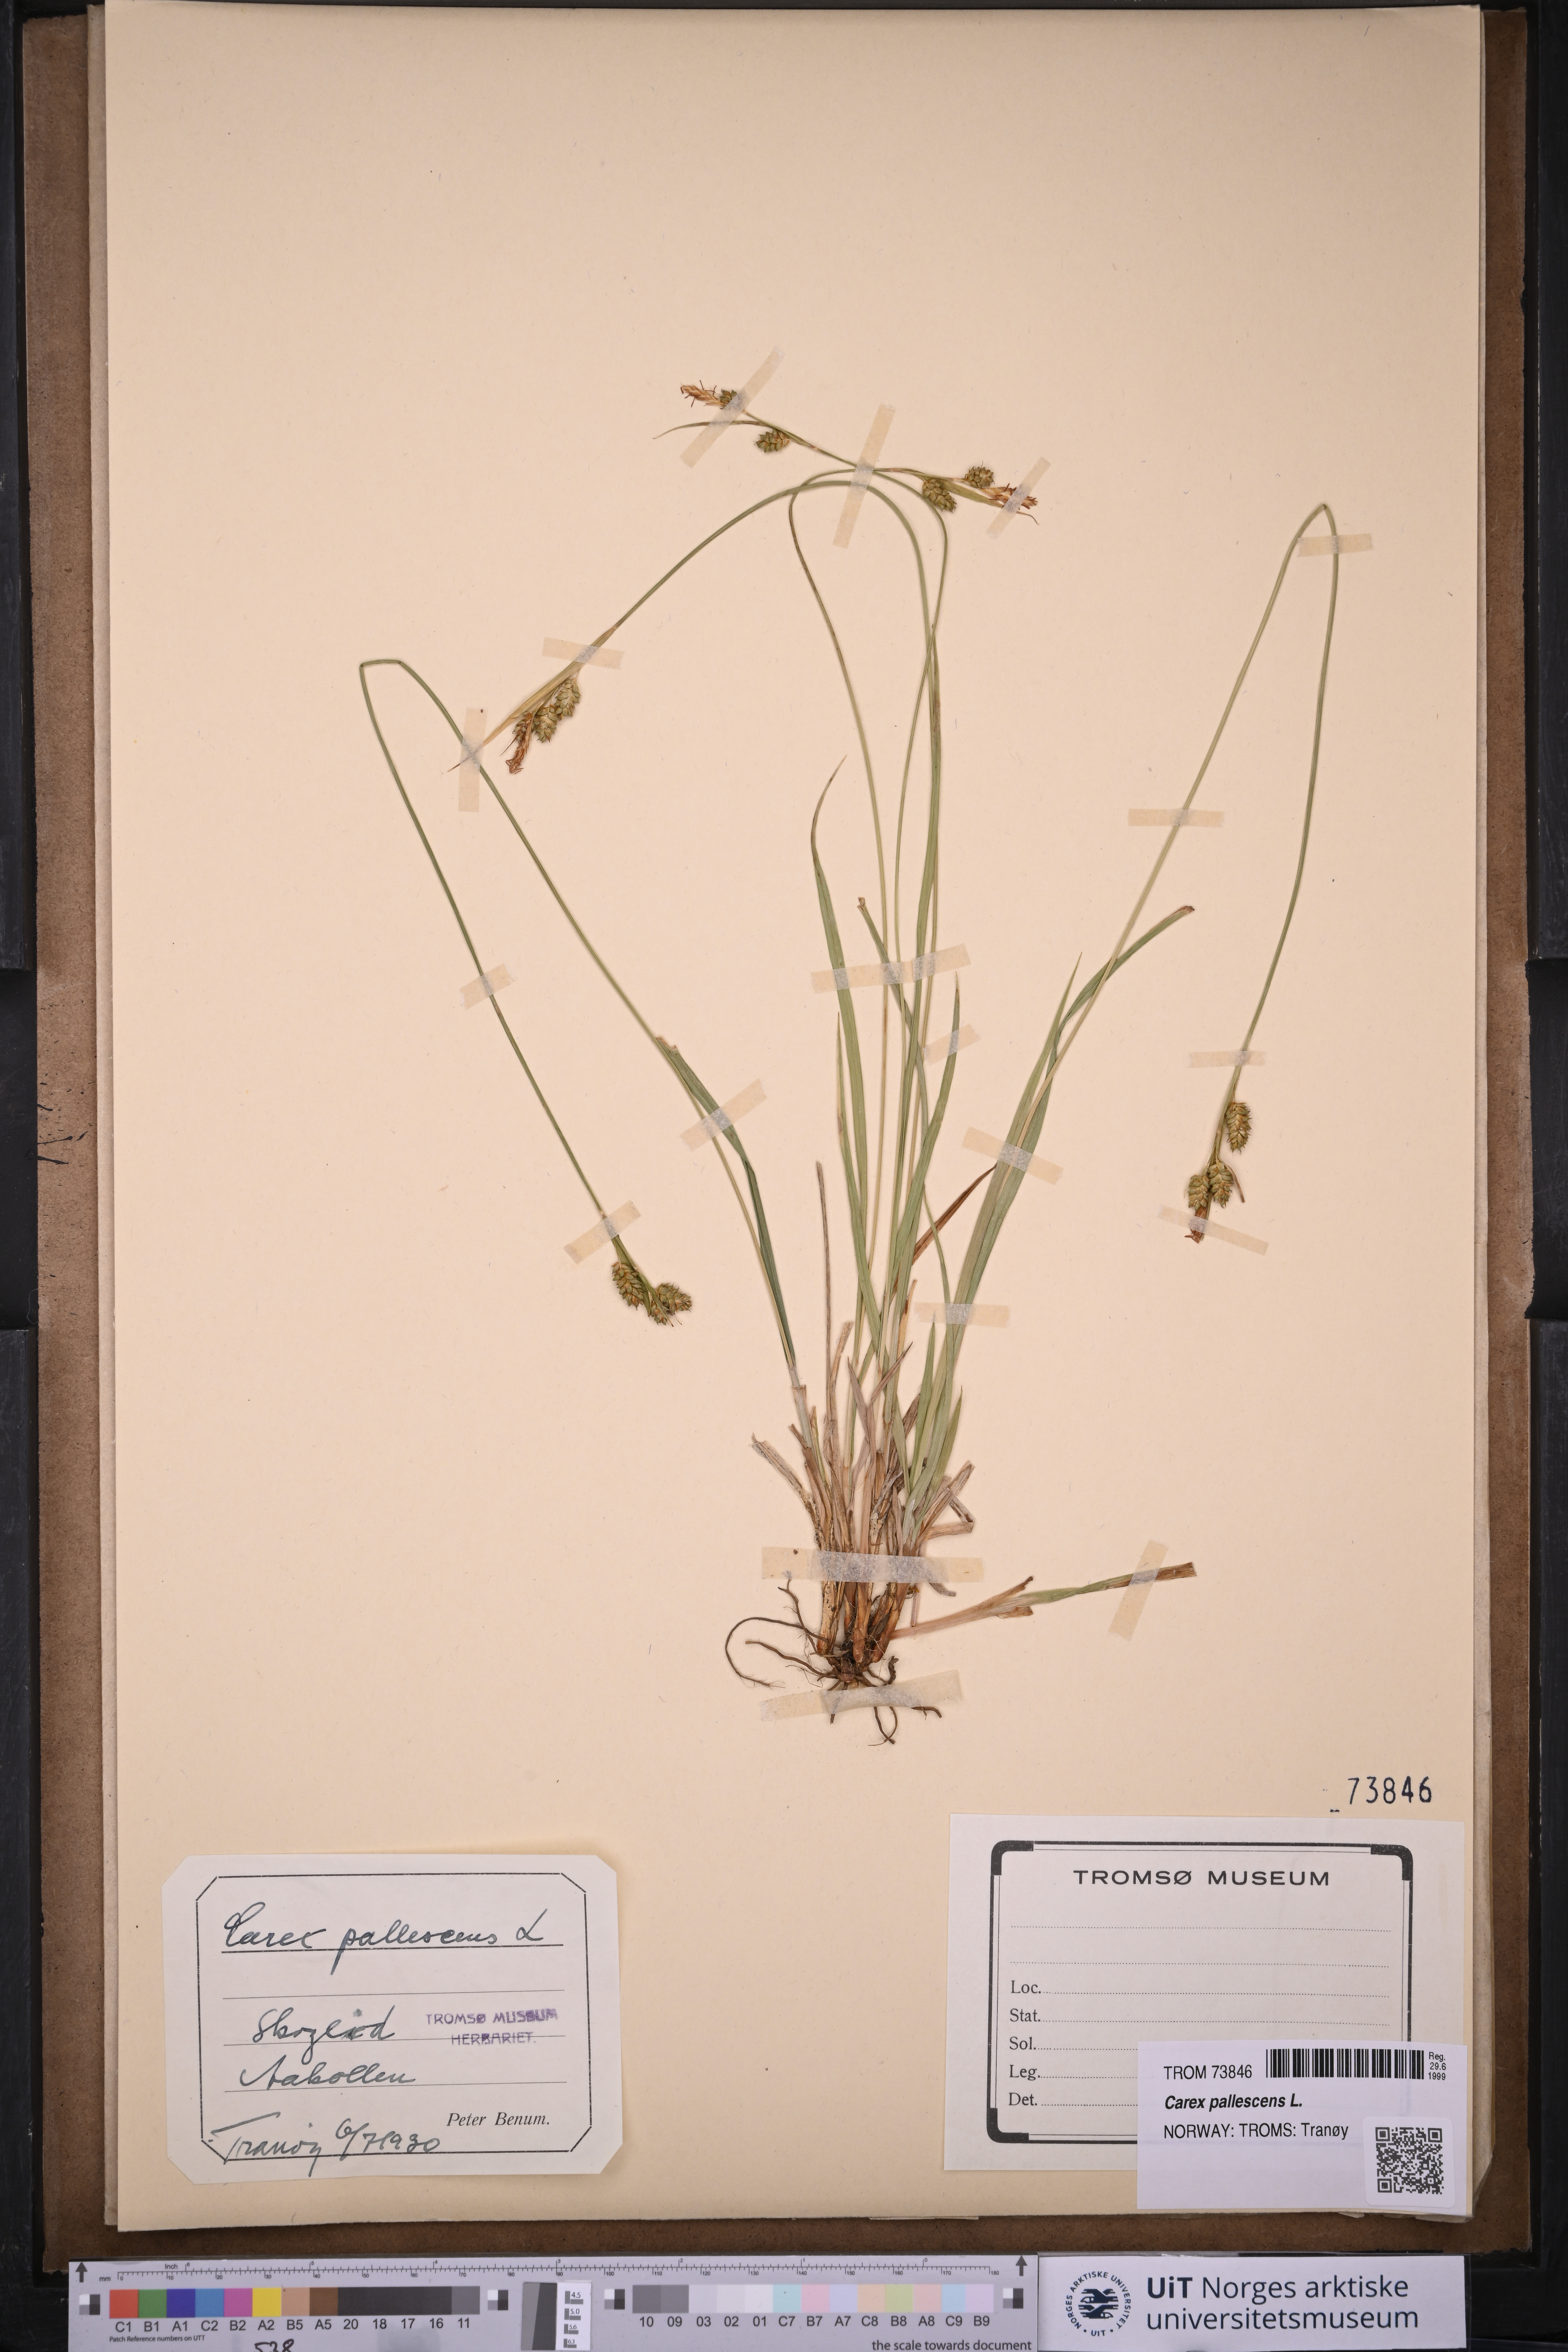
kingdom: Plantae
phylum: Tracheophyta
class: Liliopsida
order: Poales
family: Cyperaceae
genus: Carex
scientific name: Carex pallescens
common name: Pale sedge
